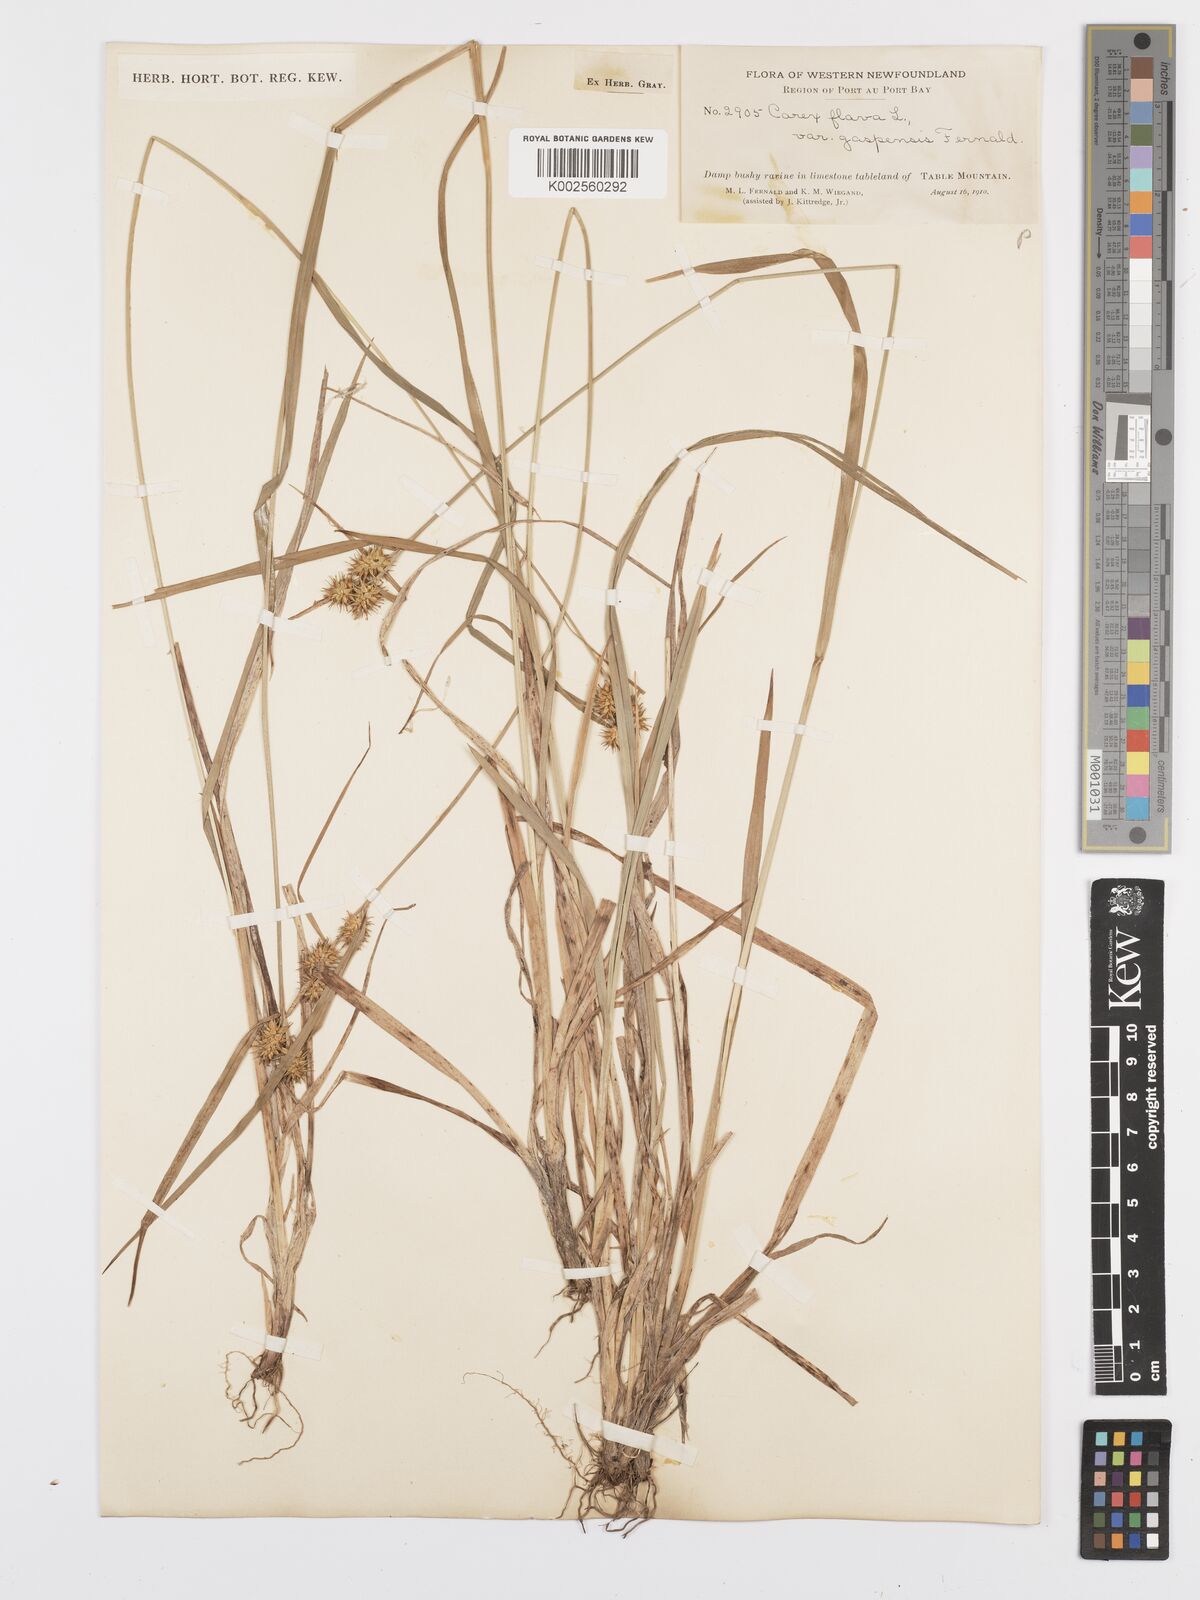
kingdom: Plantae
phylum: Tracheophyta
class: Liliopsida
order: Poales
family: Cyperaceae
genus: Carex
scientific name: Carex flava
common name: Large yellow-sedge
